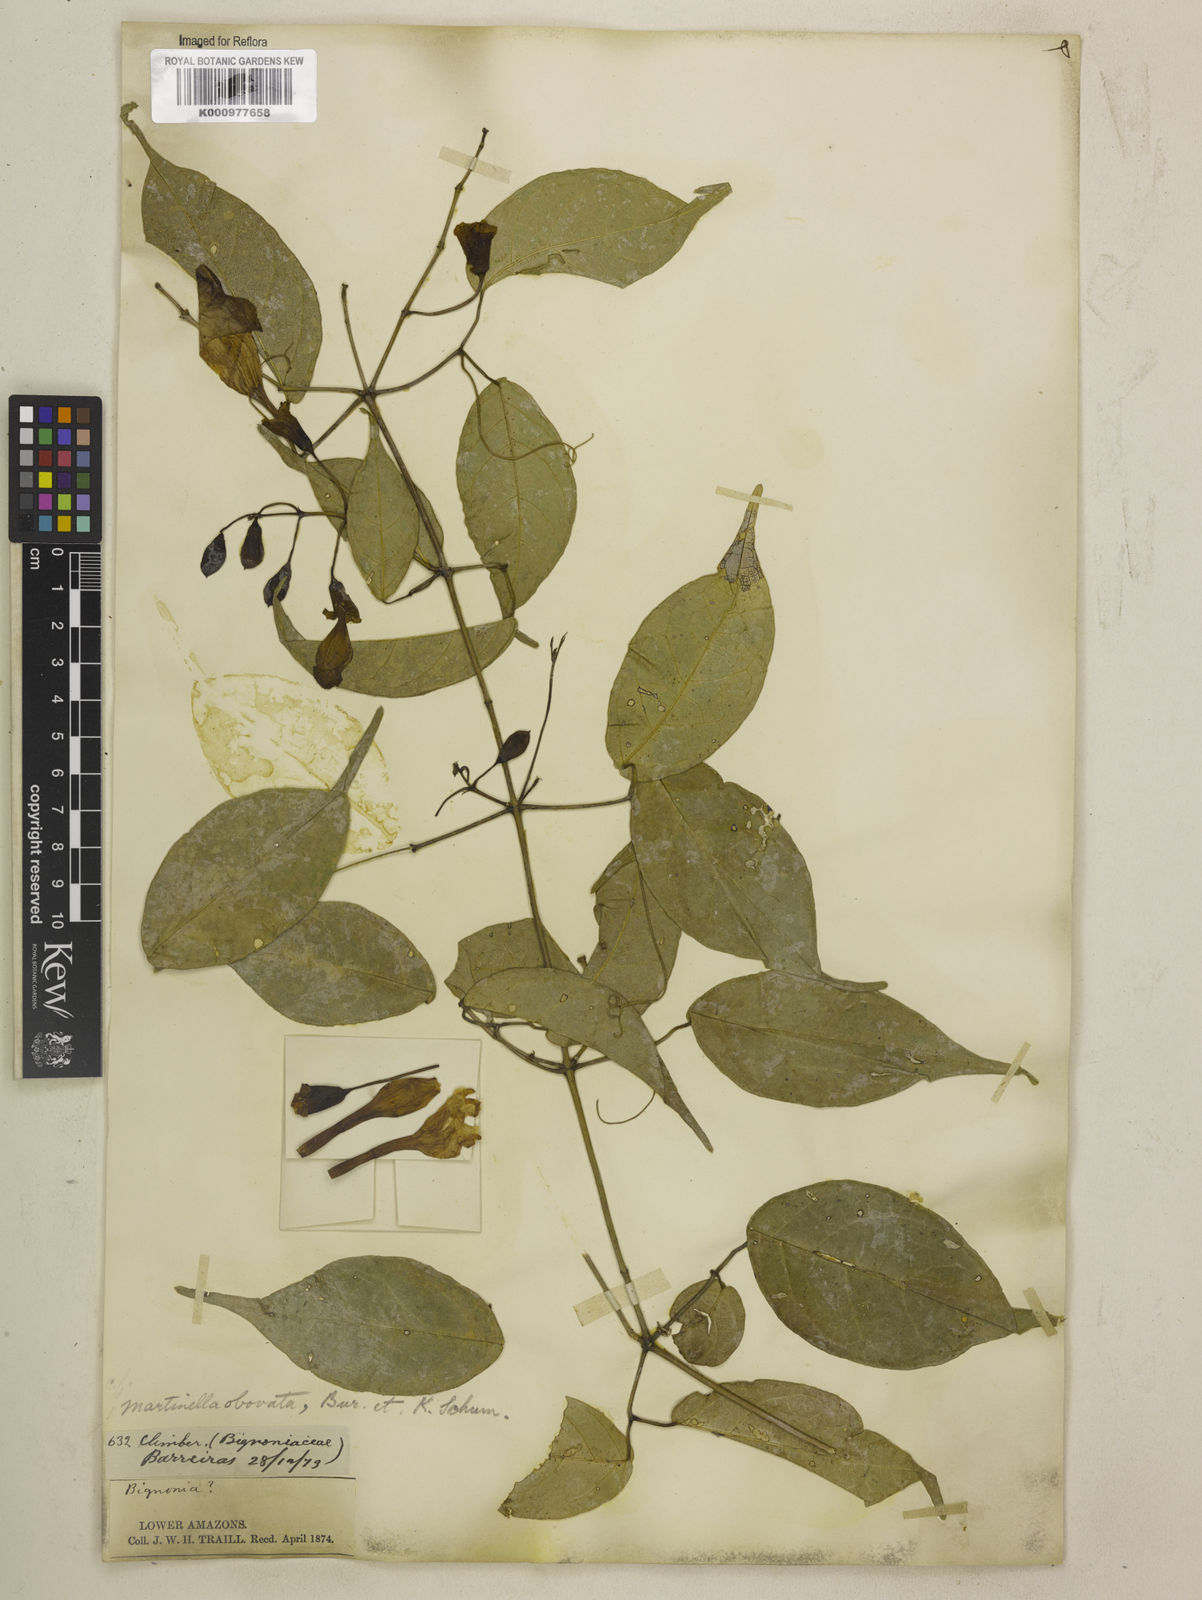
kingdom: Animalia
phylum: Arthropoda
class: Insecta
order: Coleoptera
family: Chrysomelidae
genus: Martinella
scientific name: Martinella obovata
